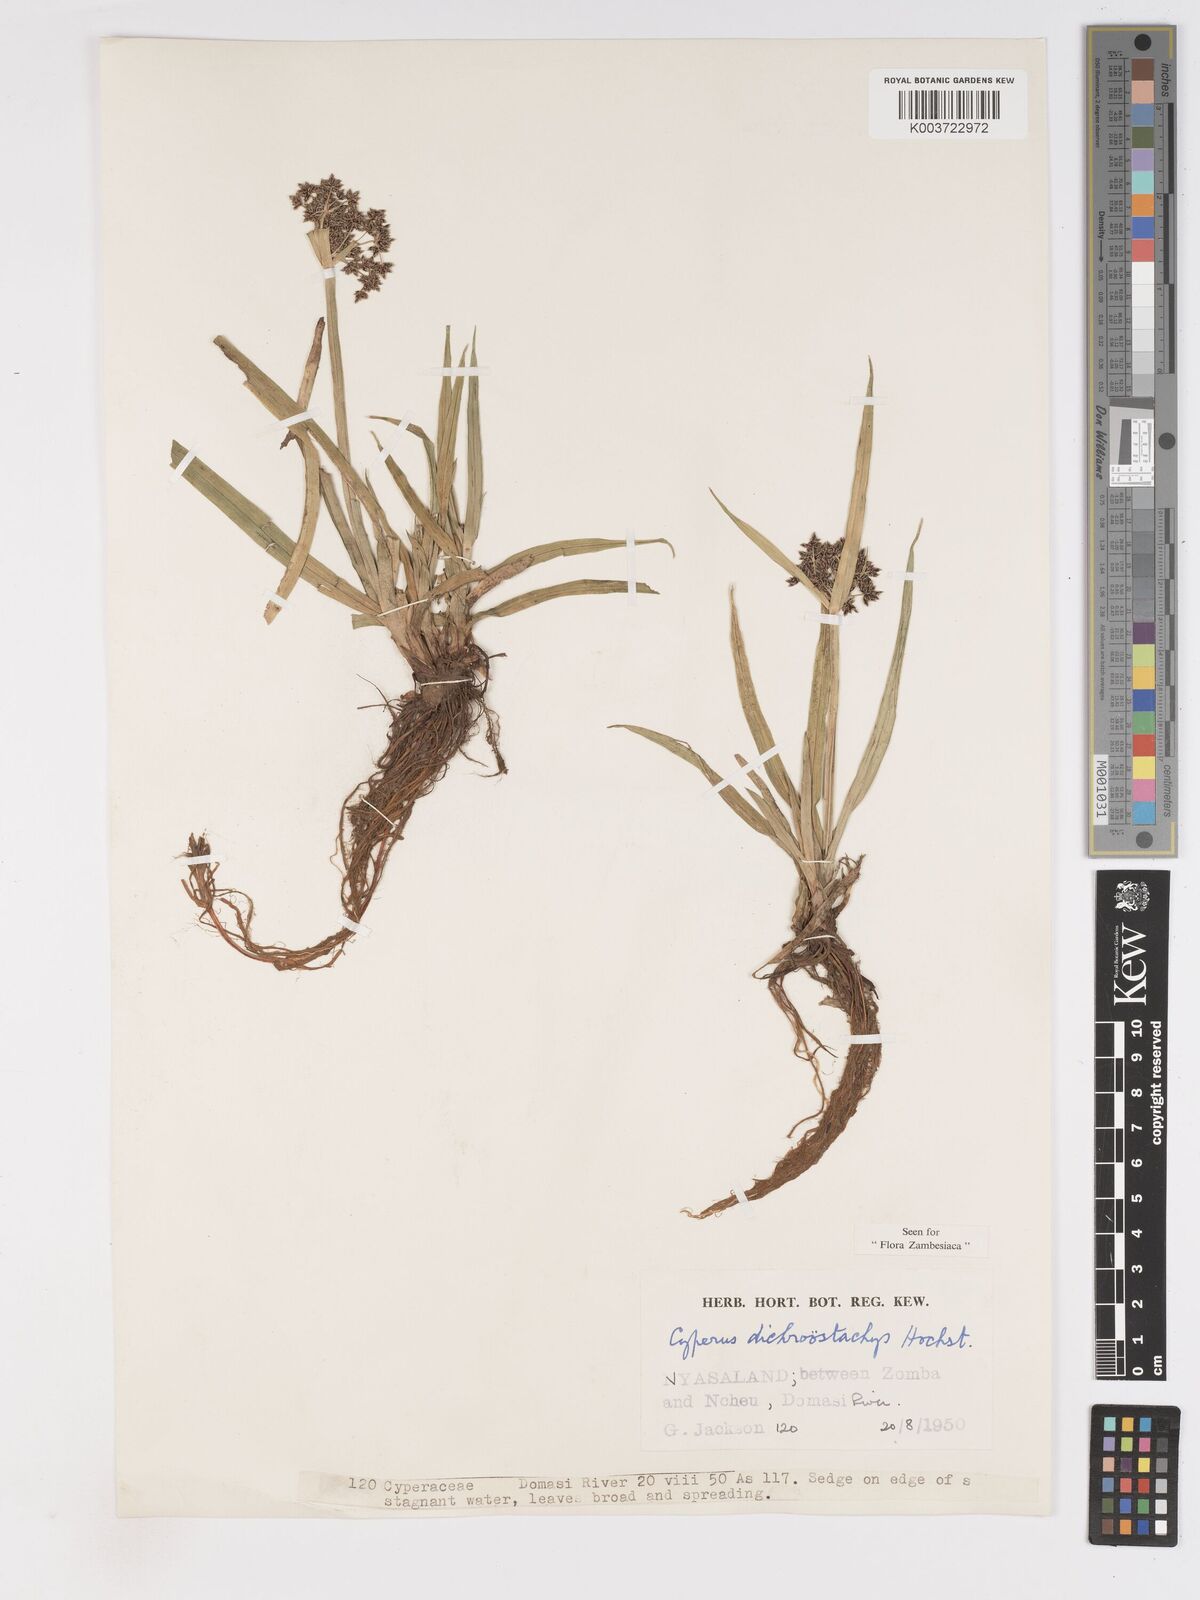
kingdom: Plantae
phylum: Tracheophyta
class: Liliopsida
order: Poales
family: Cyperaceae
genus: Cyperus
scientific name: Cyperus dichrostachyus
